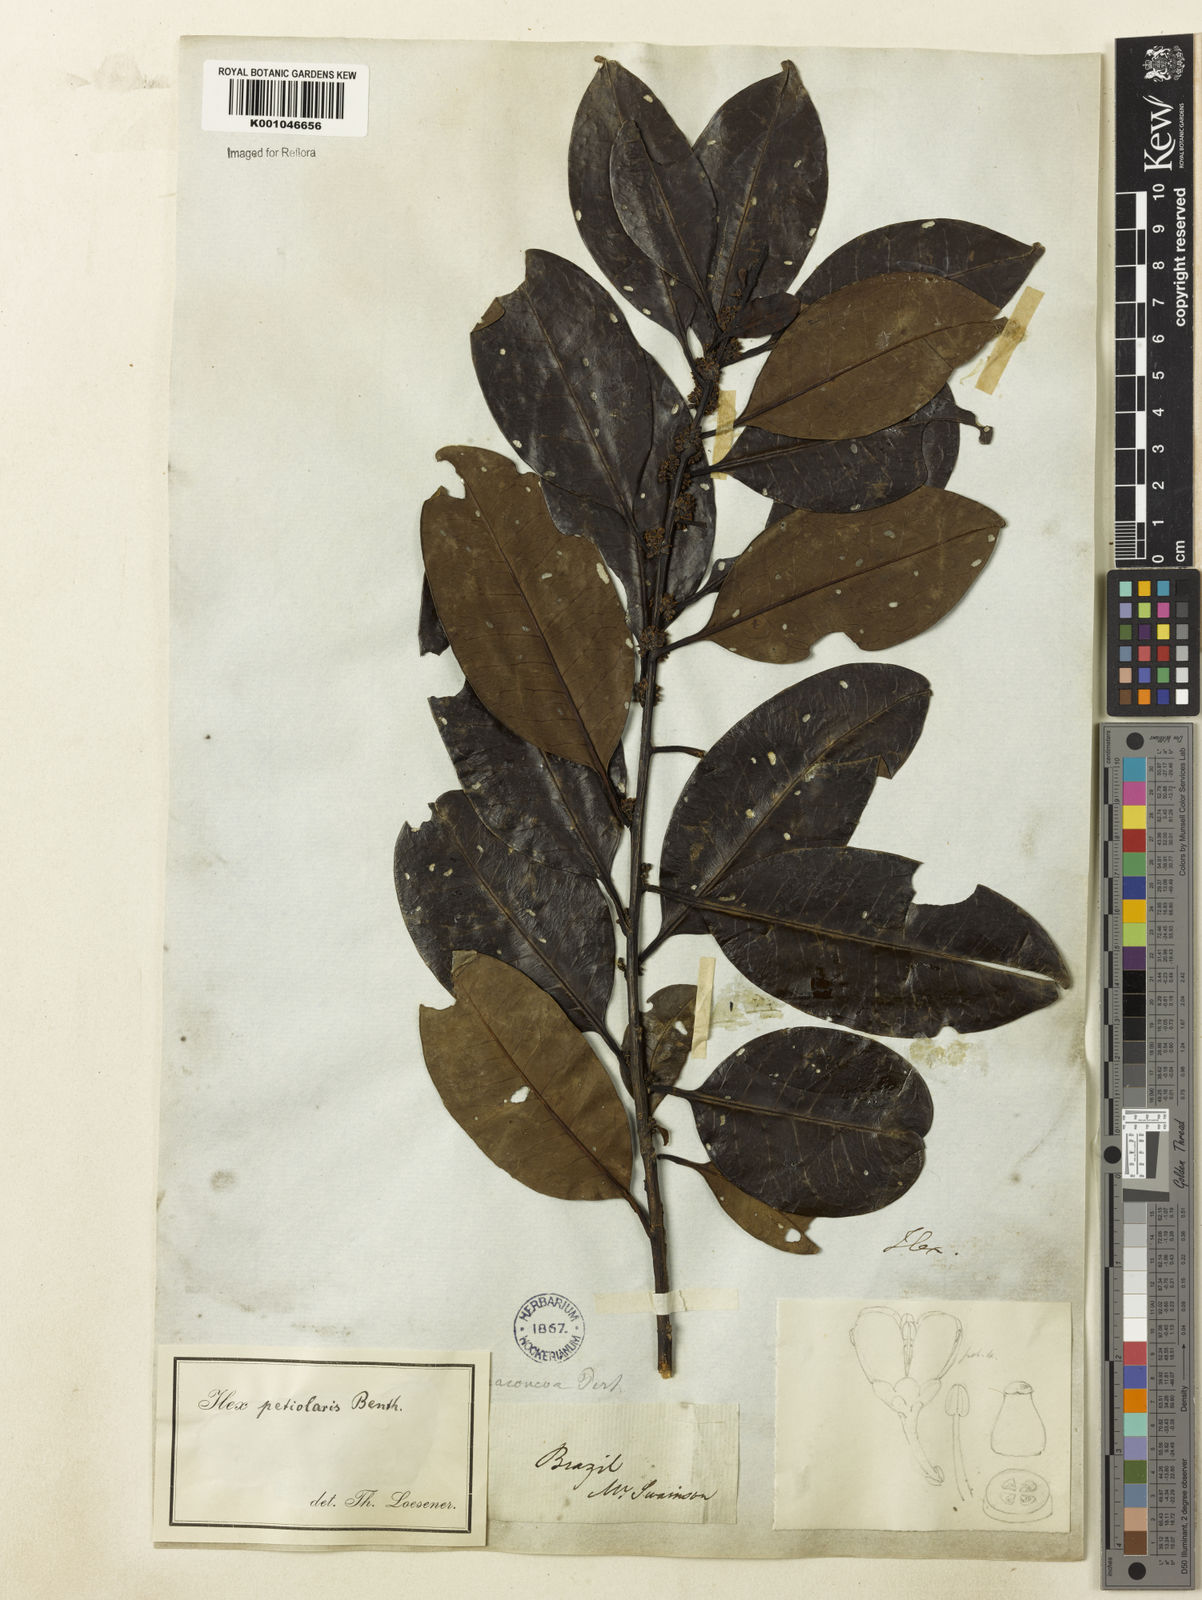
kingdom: Plantae
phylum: Tracheophyta
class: Magnoliopsida
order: Aquifoliales
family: Aquifoliaceae
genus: Ilex
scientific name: Ilex petiolaris
